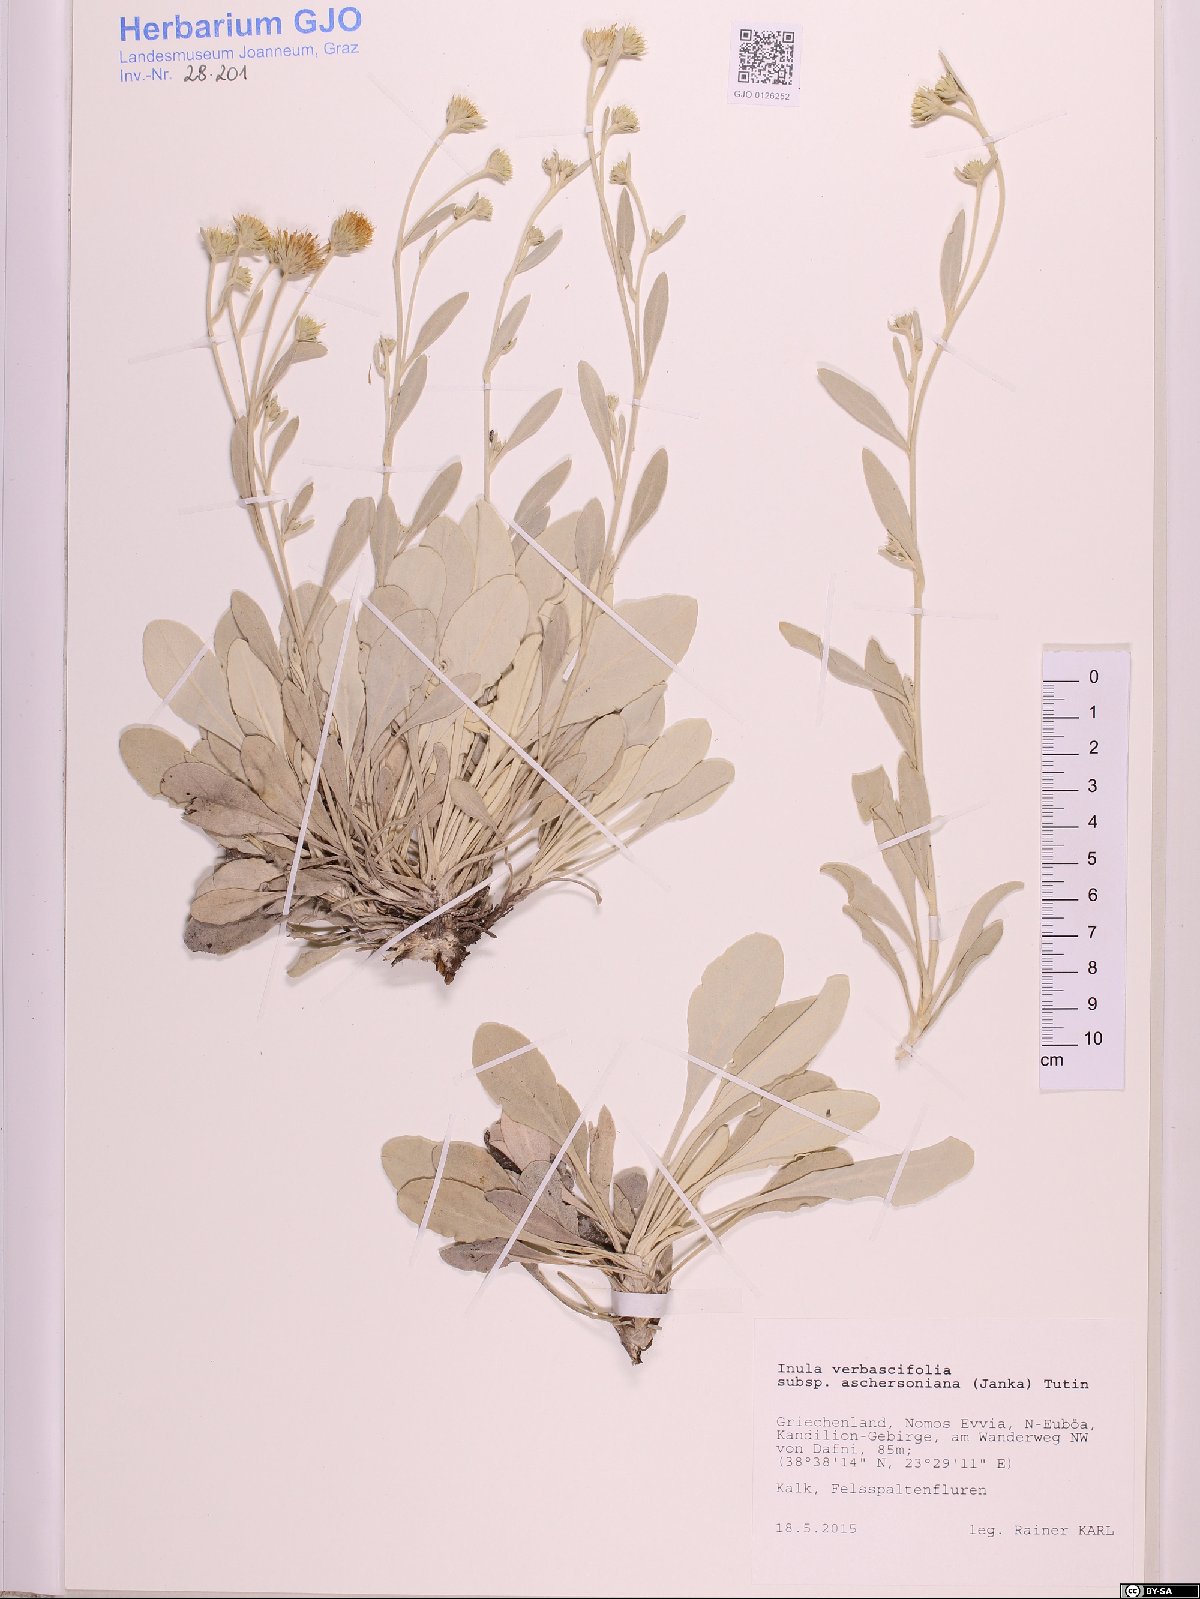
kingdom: Plantae
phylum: Tracheophyta
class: Magnoliopsida
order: Asterales
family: Asteraceae
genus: Pentanema
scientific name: Pentanema aschersonianum
